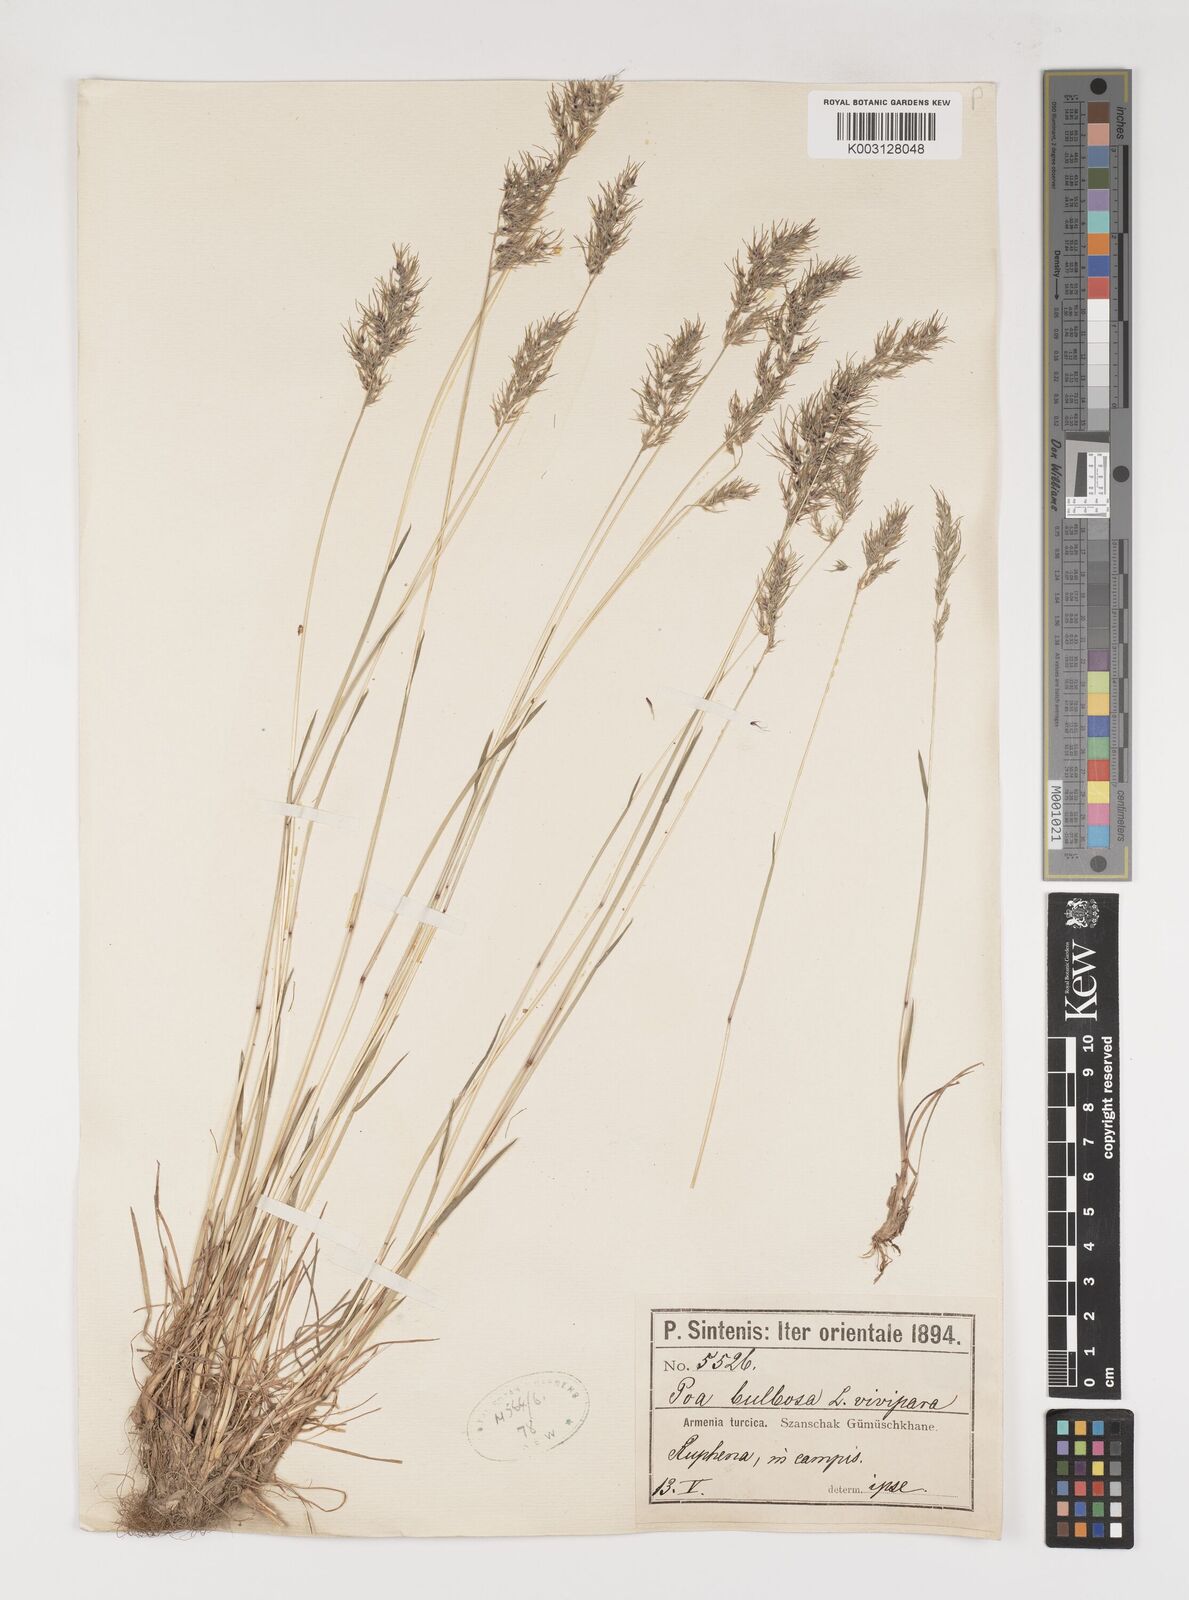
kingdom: Plantae
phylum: Tracheophyta
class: Liliopsida
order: Poales
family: Poaceae
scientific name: Poaceae
